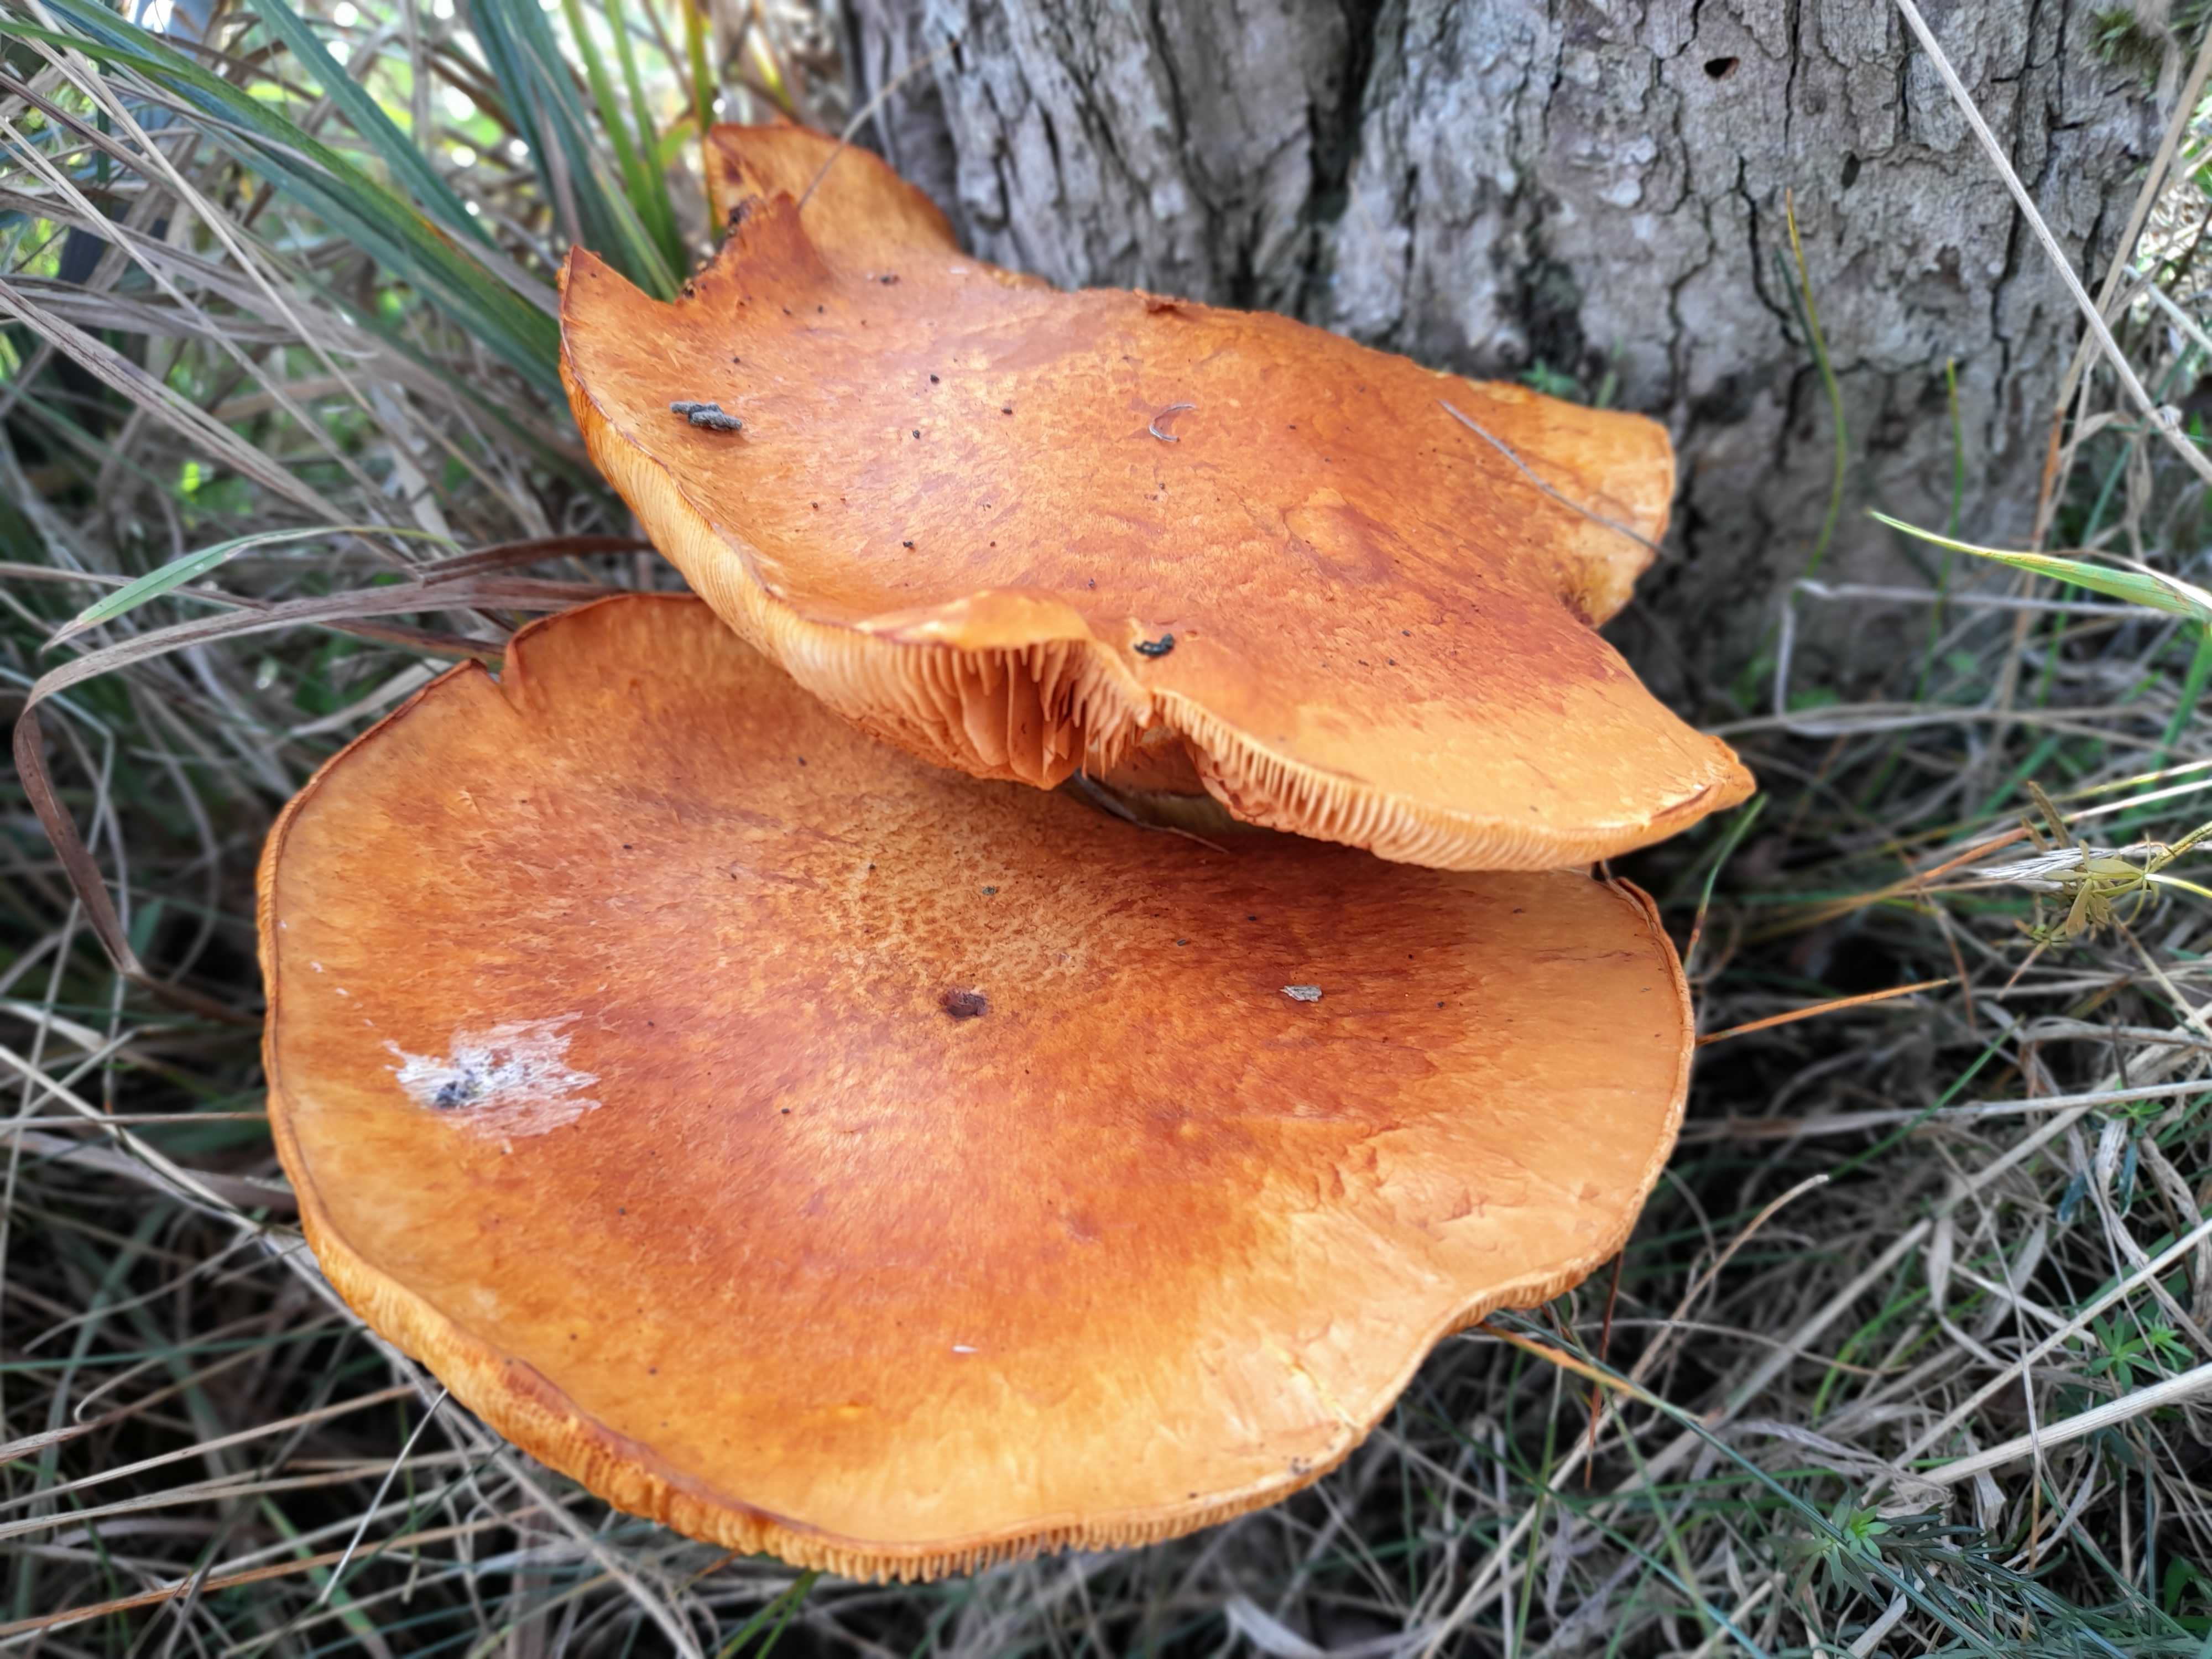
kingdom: Fungi
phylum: Basidiomycota
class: Agaricomycetes
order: Agaricales
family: Hymenogastraceae
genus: Gymnopilus
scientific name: Gymnopilus spectabilis
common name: fibret flammehat
